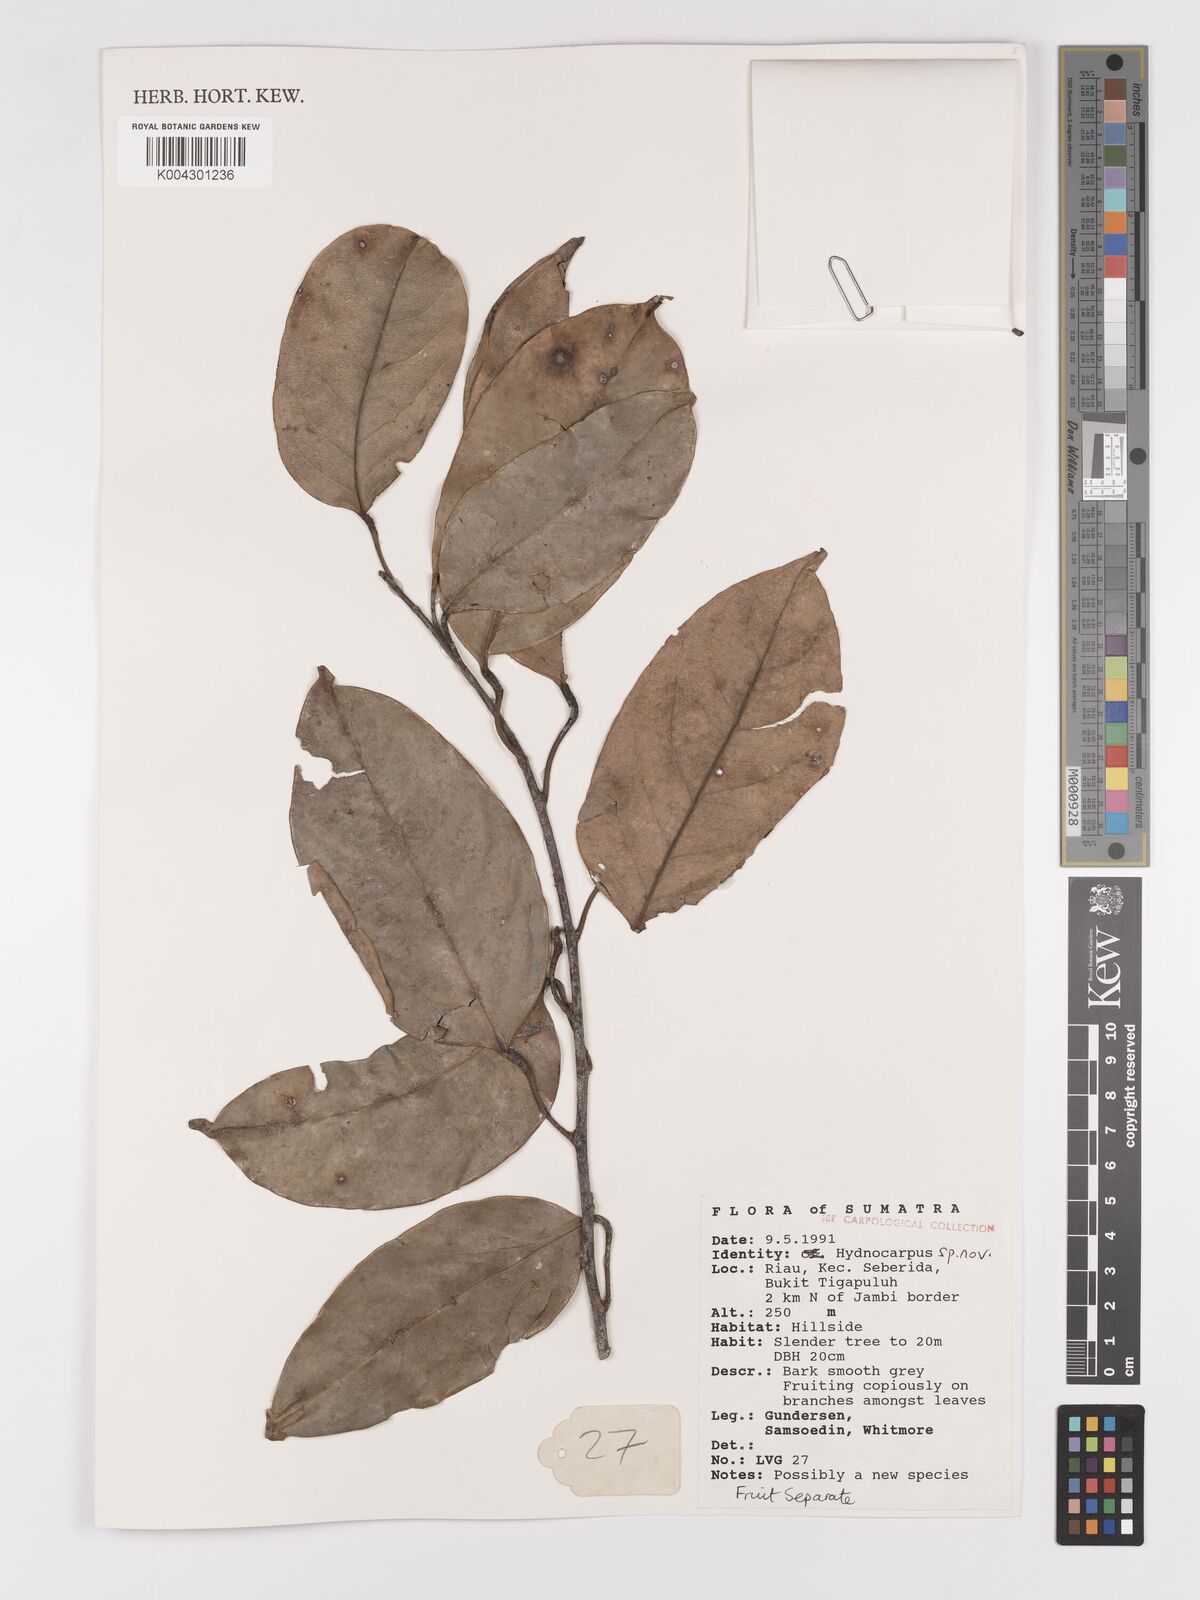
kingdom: Plantae
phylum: Tracheophyta
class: Magnoliopsida
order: Malpighiales
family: Achariaceae
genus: Hydnocarpus
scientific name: Hydnocarpus
